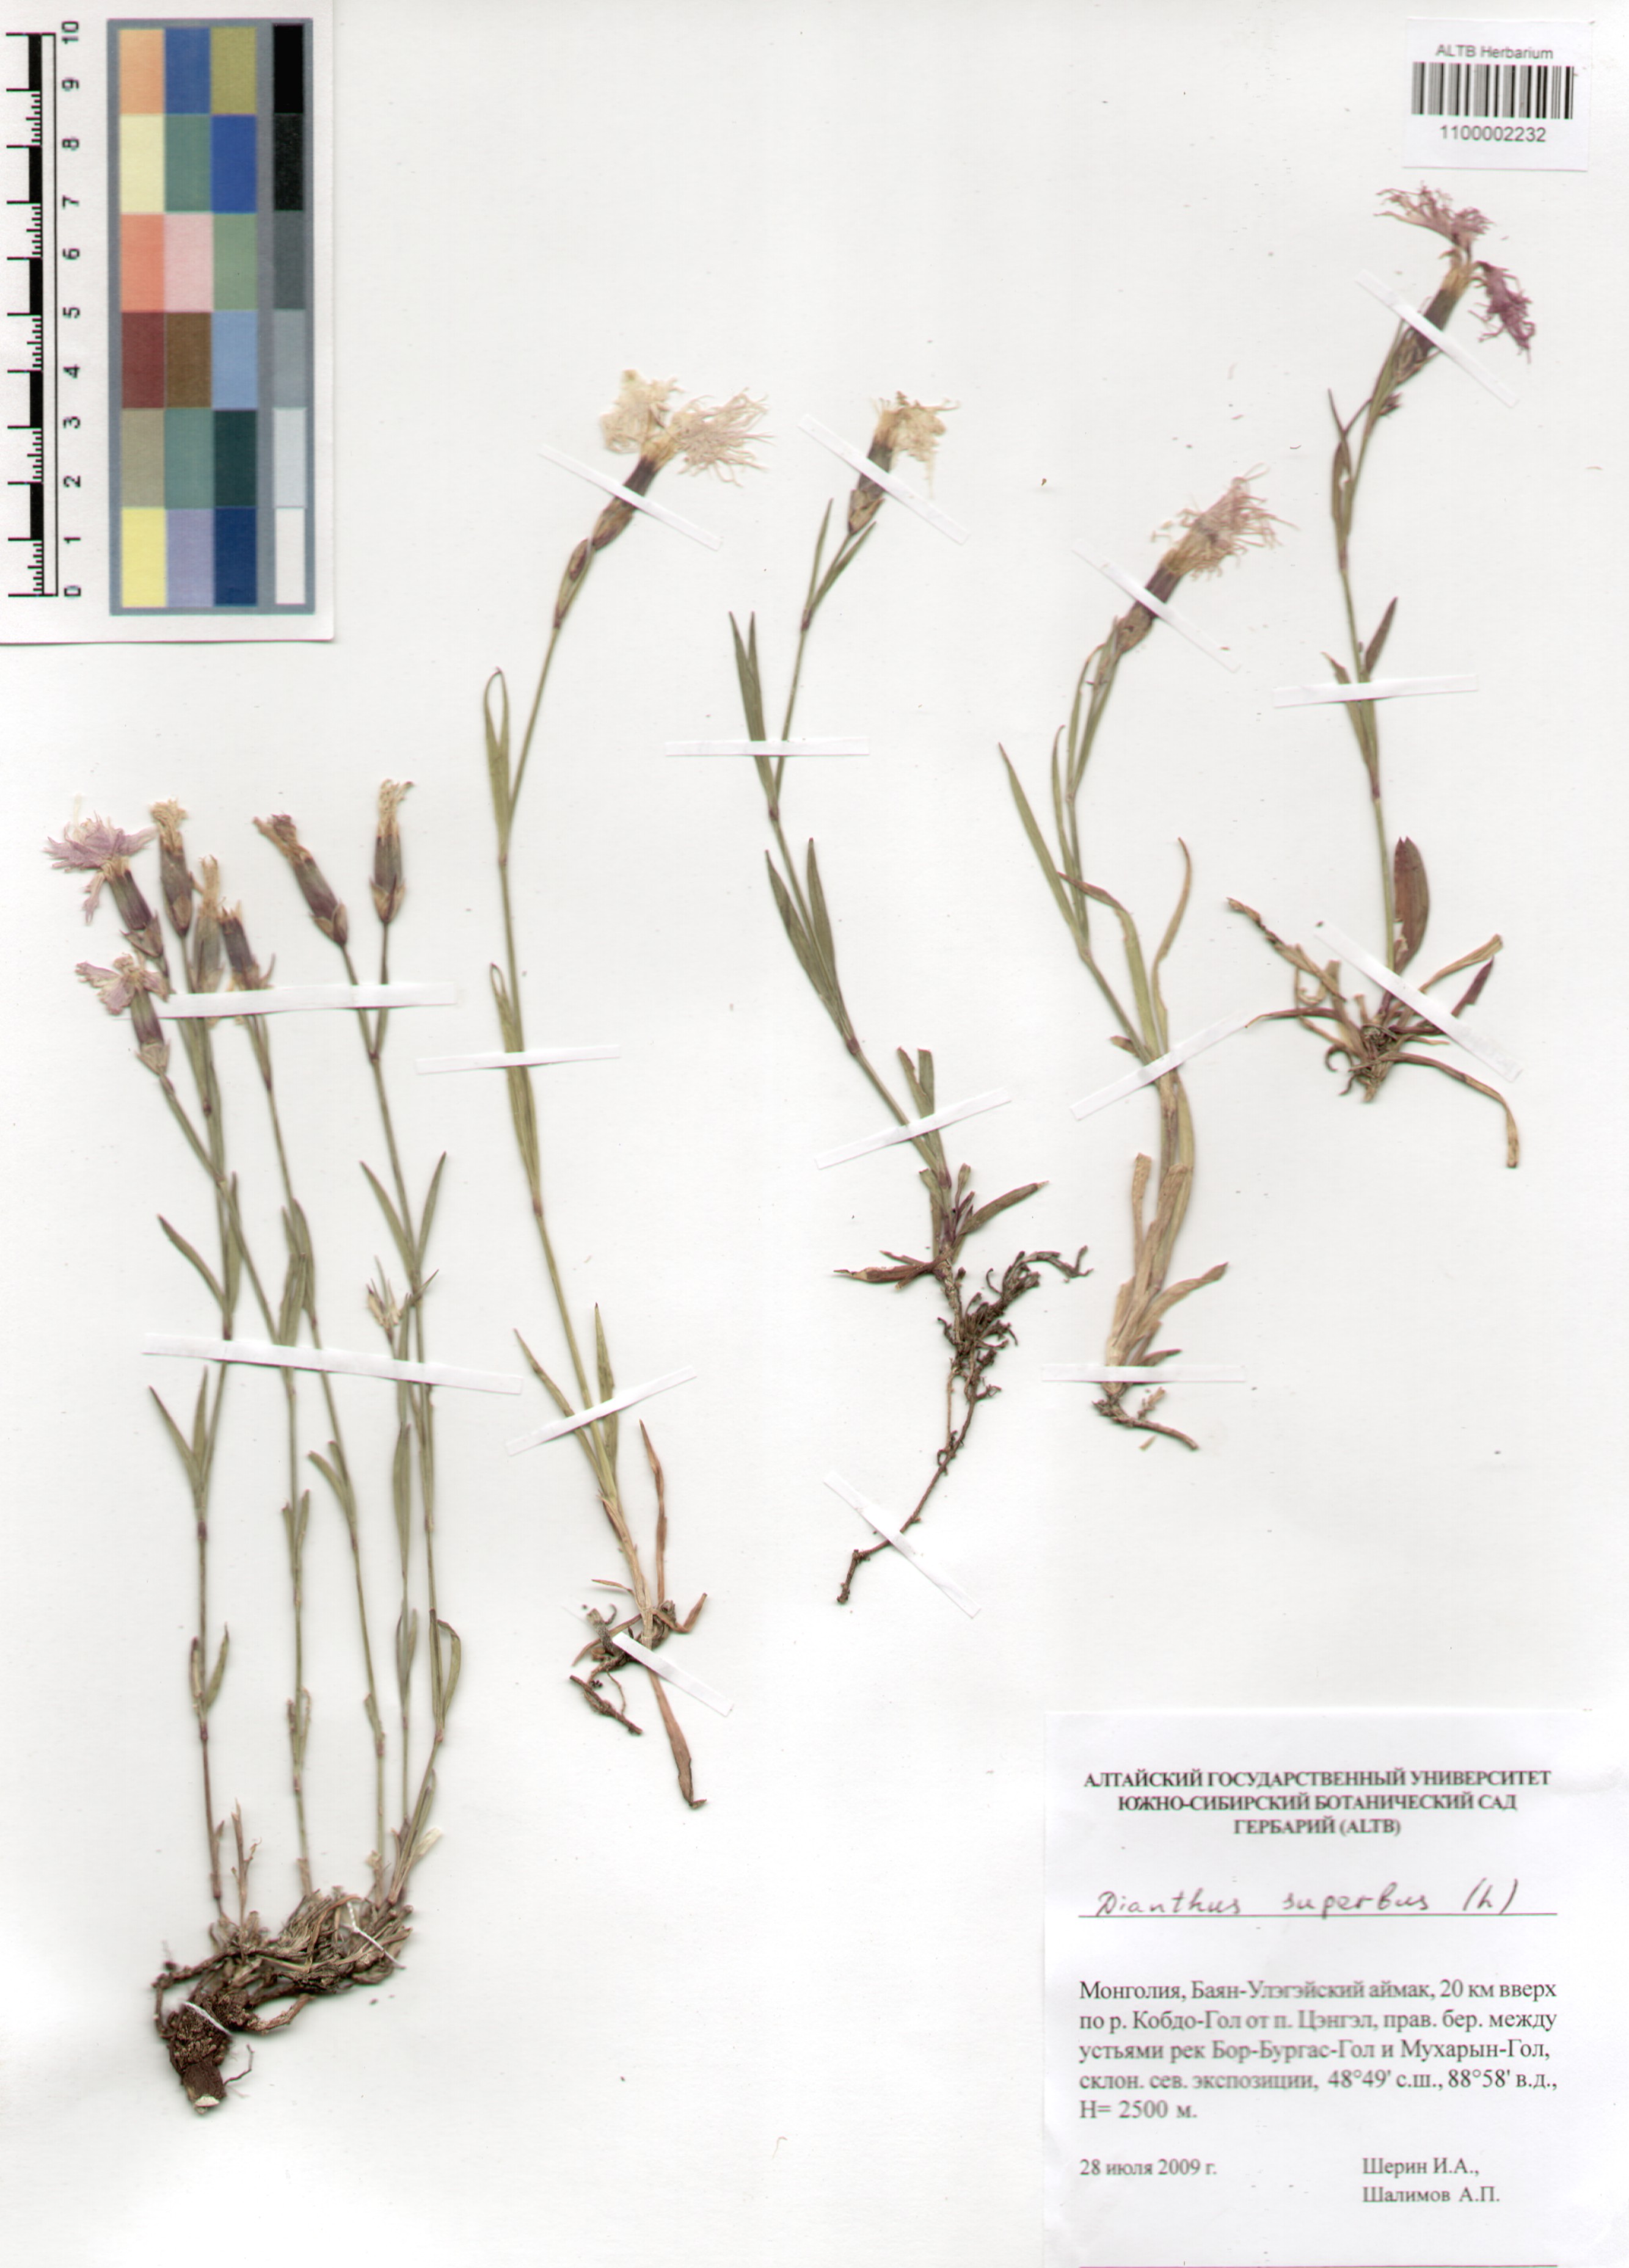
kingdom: Plantae
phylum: Tracheophyta
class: Magnoliopsida
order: Caryophyllales
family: Caryophyllaceae
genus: Dianthus
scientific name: Dianthus superbus
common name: Fringed pink
